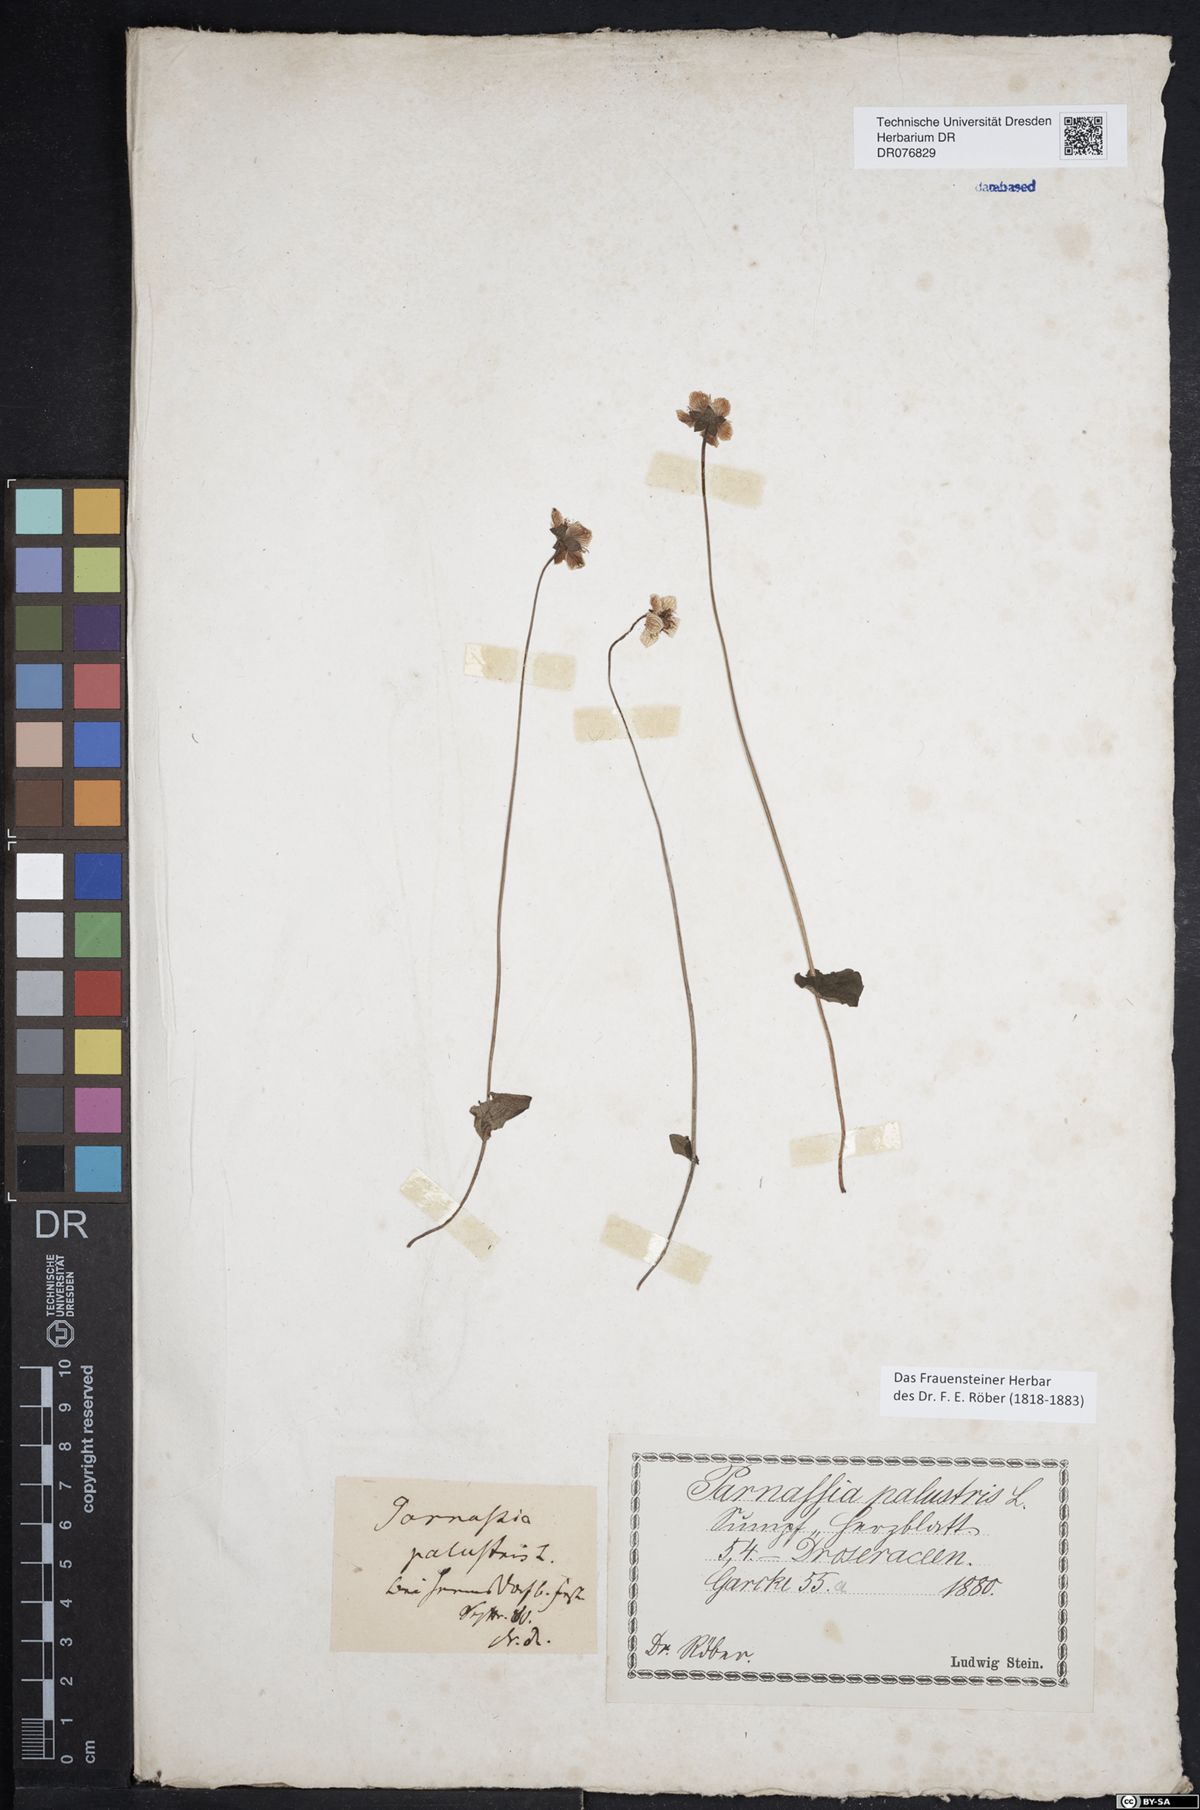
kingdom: Plantae
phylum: Tracheophyta
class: Magnoliopsida
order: Celastrales
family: Parnassiaceae
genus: Parnassia
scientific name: Parnassia palustris
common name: Grass-of-parnassus
